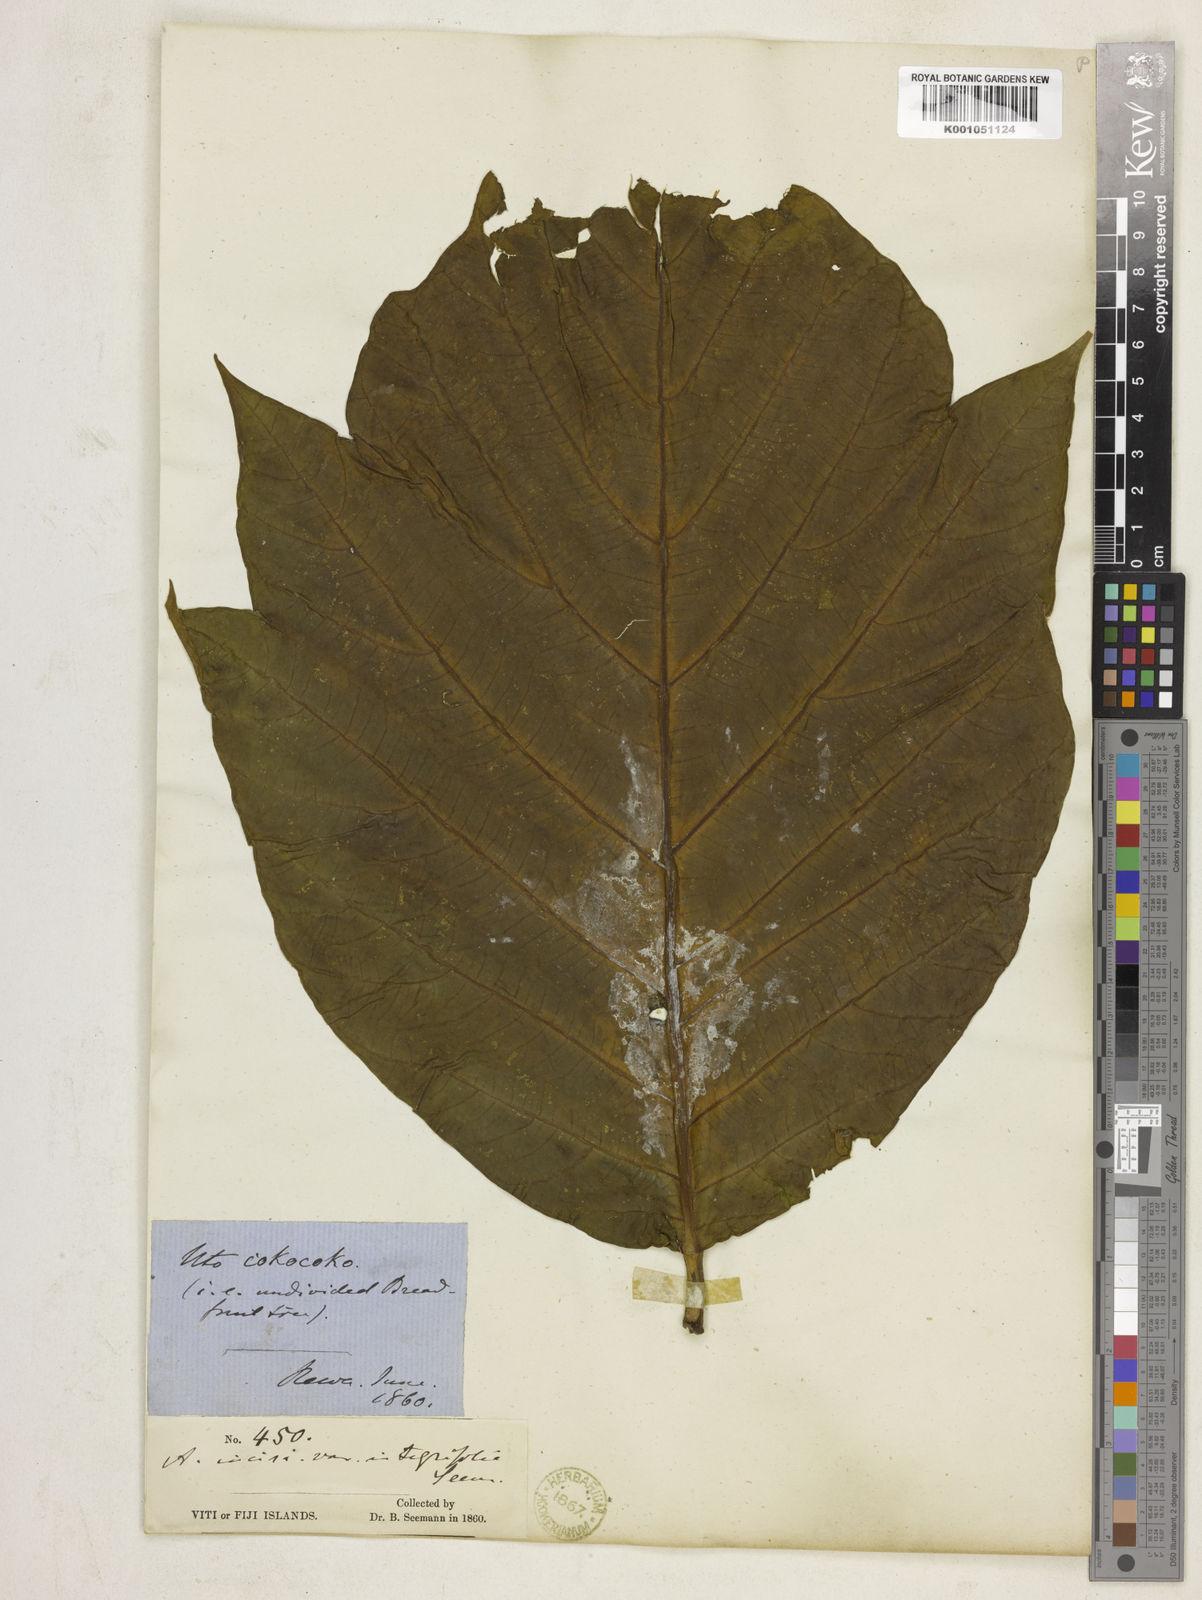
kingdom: Plantae
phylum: Tracheophyta
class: Magnoliopsida
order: Rosales
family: Moraceae
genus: Artocarpus
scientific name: Artocarpus altilis
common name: Breadfruit
